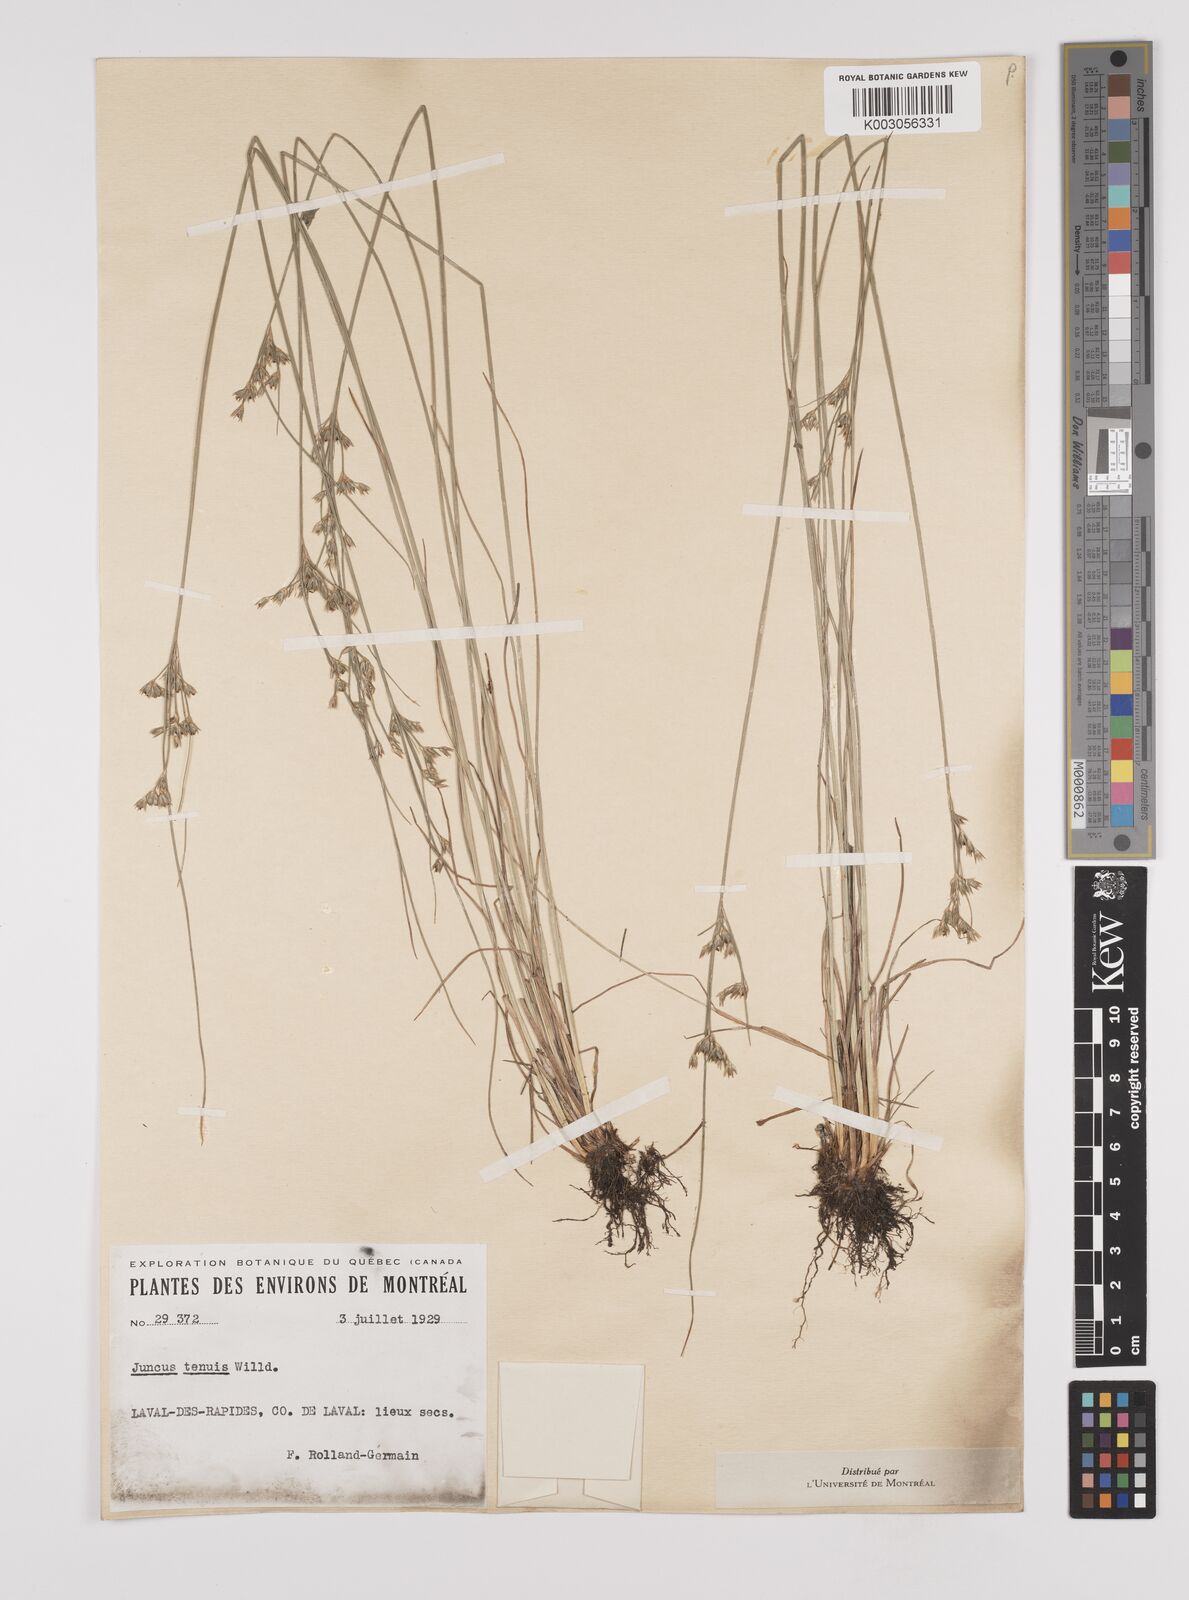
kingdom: Plantae
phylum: Tracheophyta
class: Liliopsida
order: Poales
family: Juncaceae
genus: Juncus
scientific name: Juncus tenuis
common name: Slender rush
